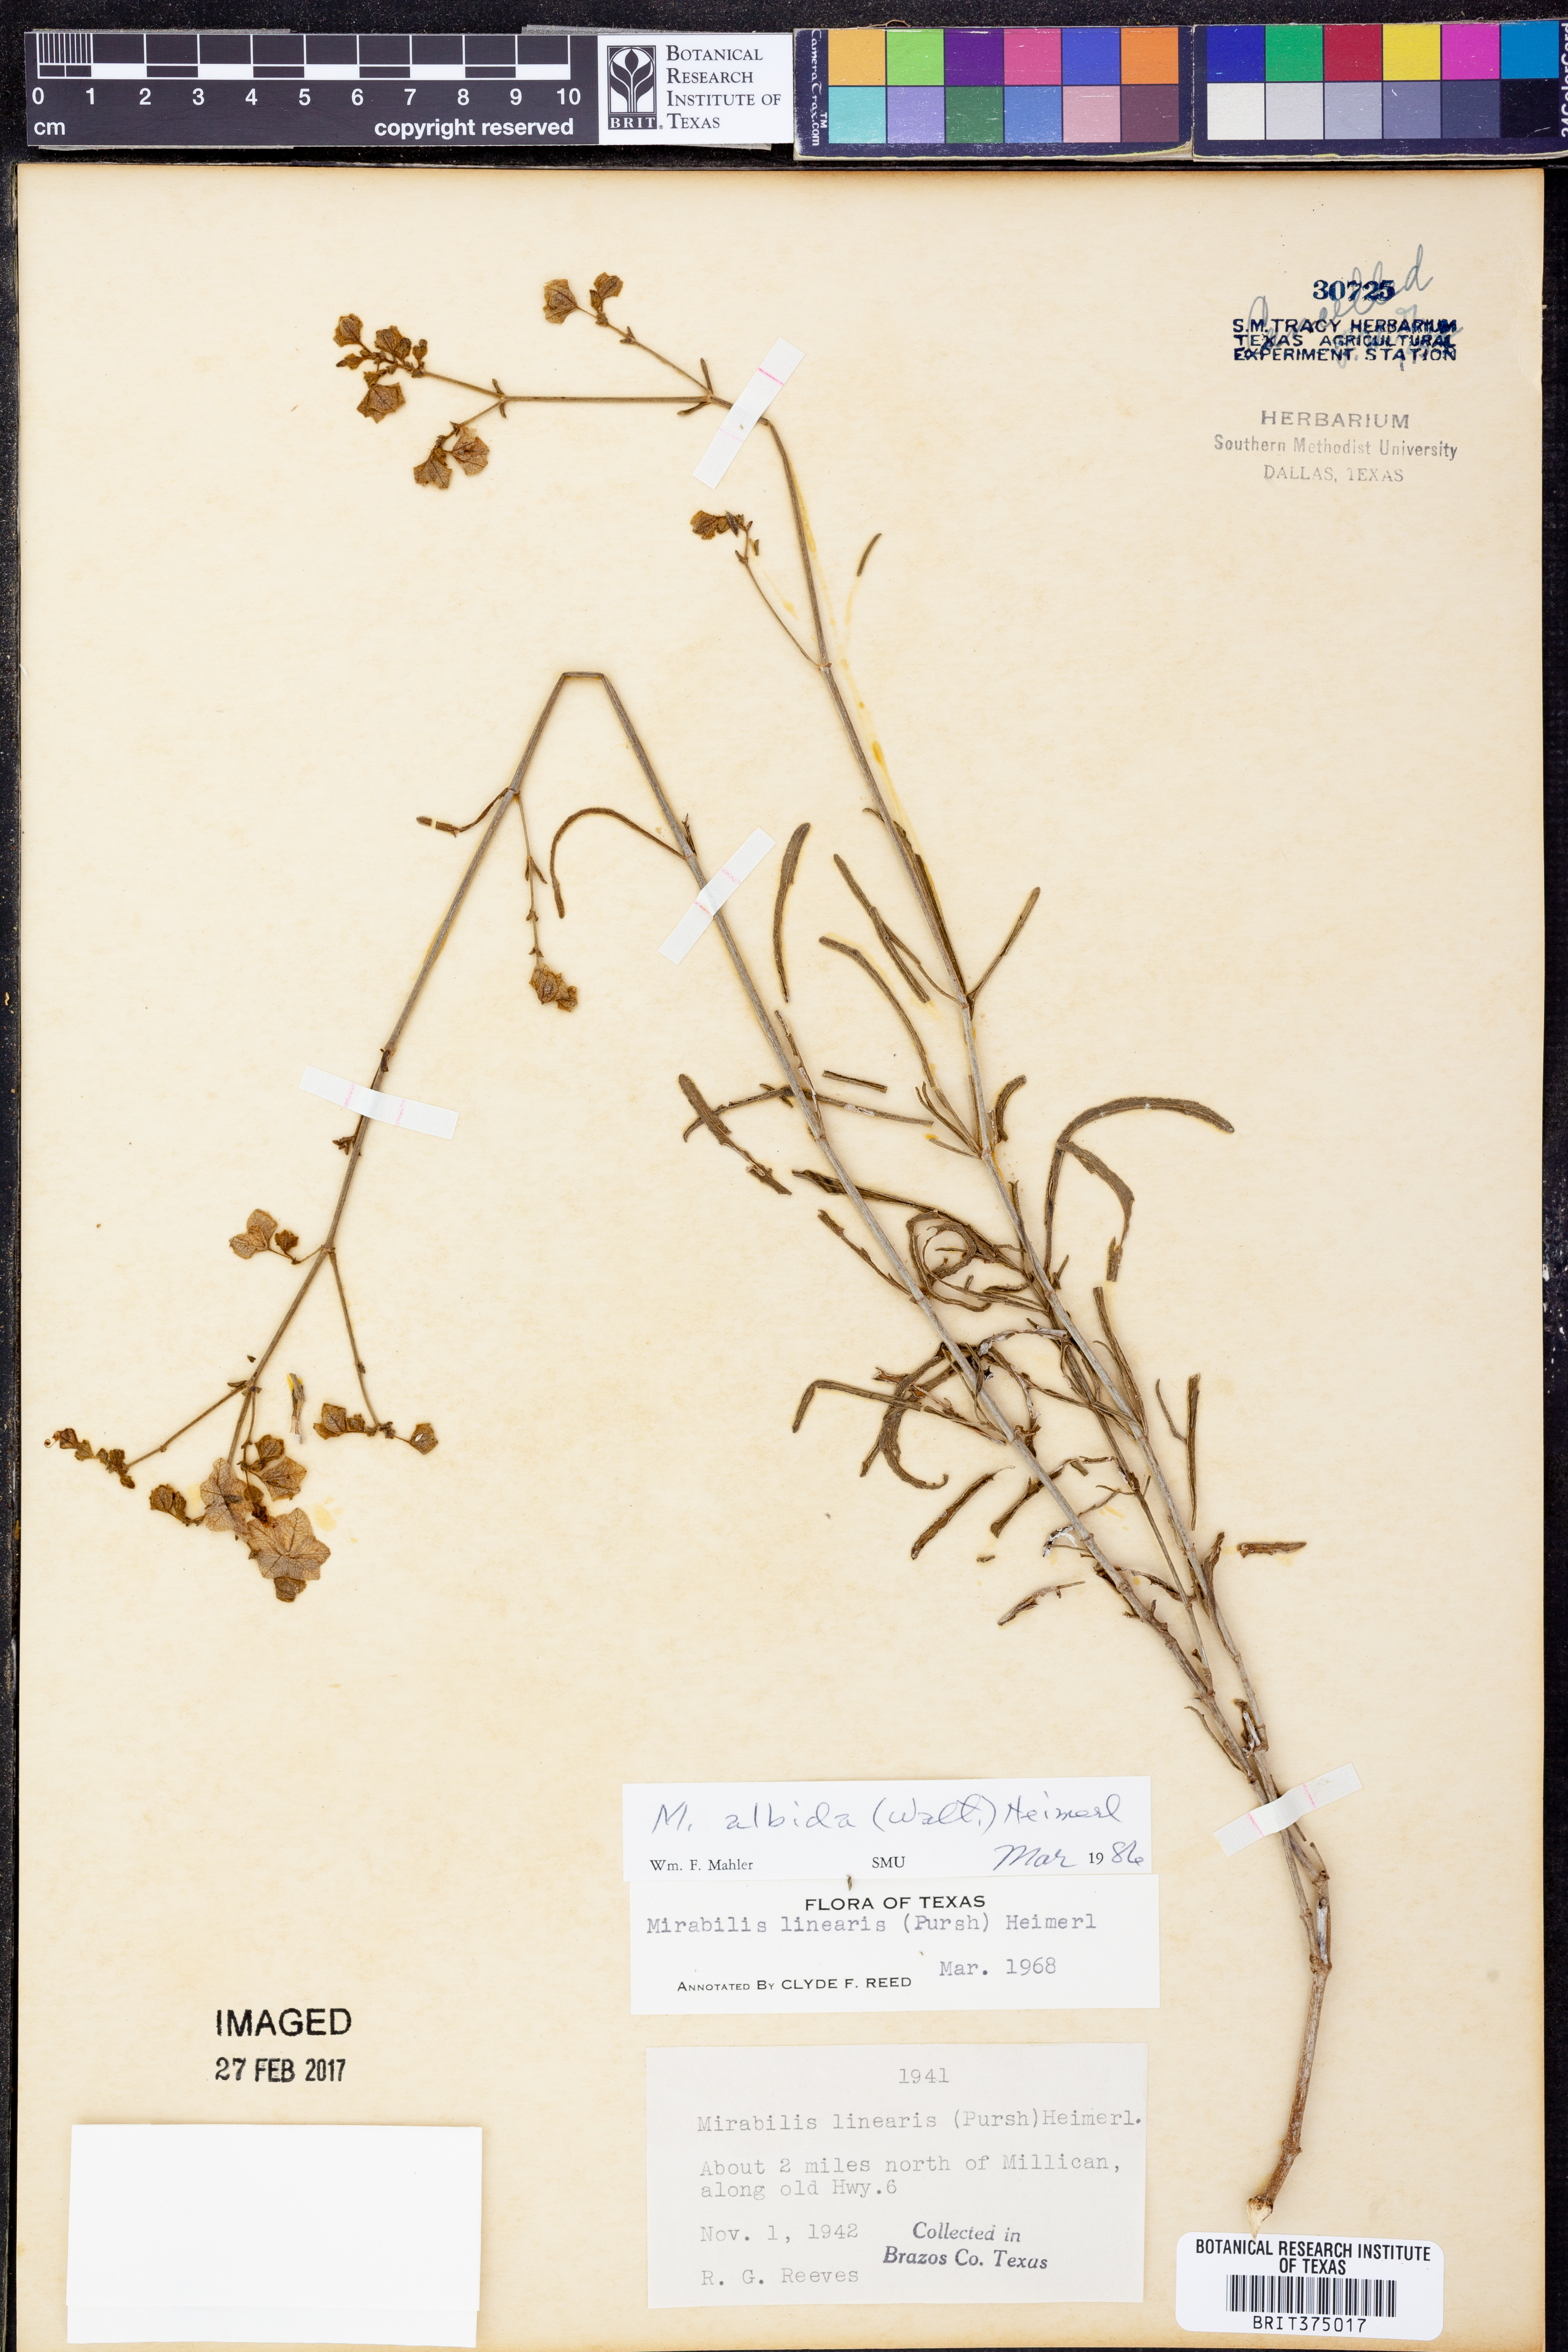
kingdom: Plantae
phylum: Tracheophyta
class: Magnoliopsida
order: Caryophyllales
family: Nyctaginaceae
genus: Mirabilis
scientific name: Mirabilis albida
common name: Hairy four-o'clock
